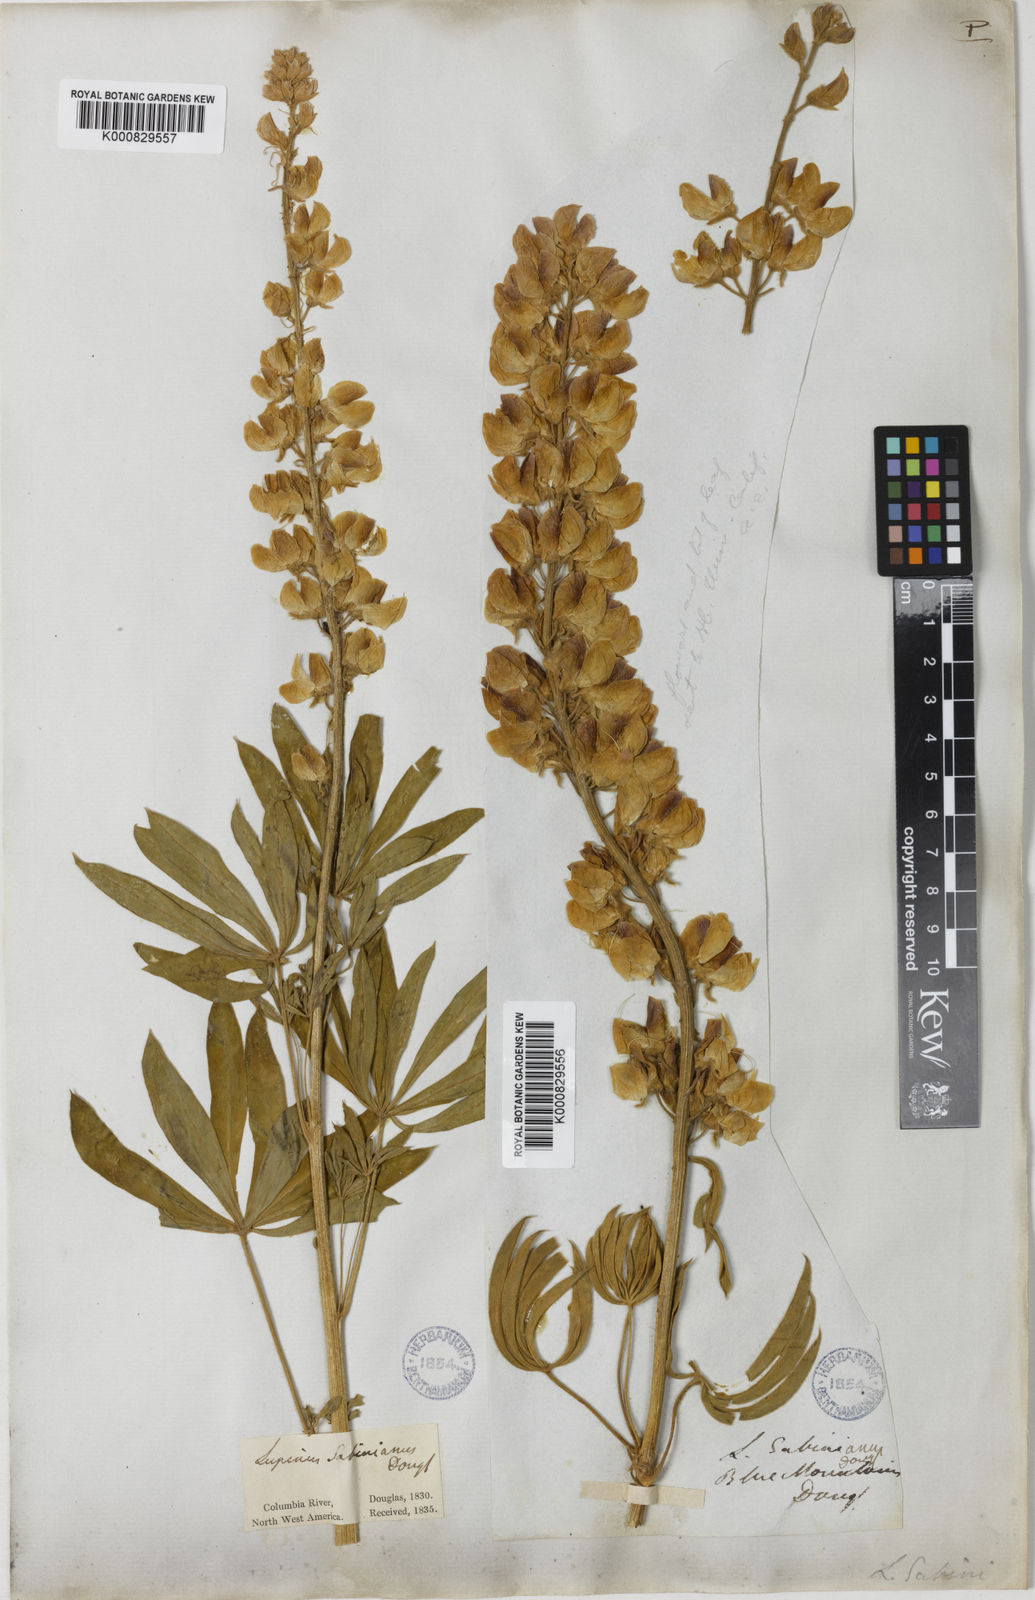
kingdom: Plantae
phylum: Tracheophyta
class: Magnoliopsida
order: Fabales
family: Fabaceae
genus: Lupinus
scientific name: Lupinus sabinianus
